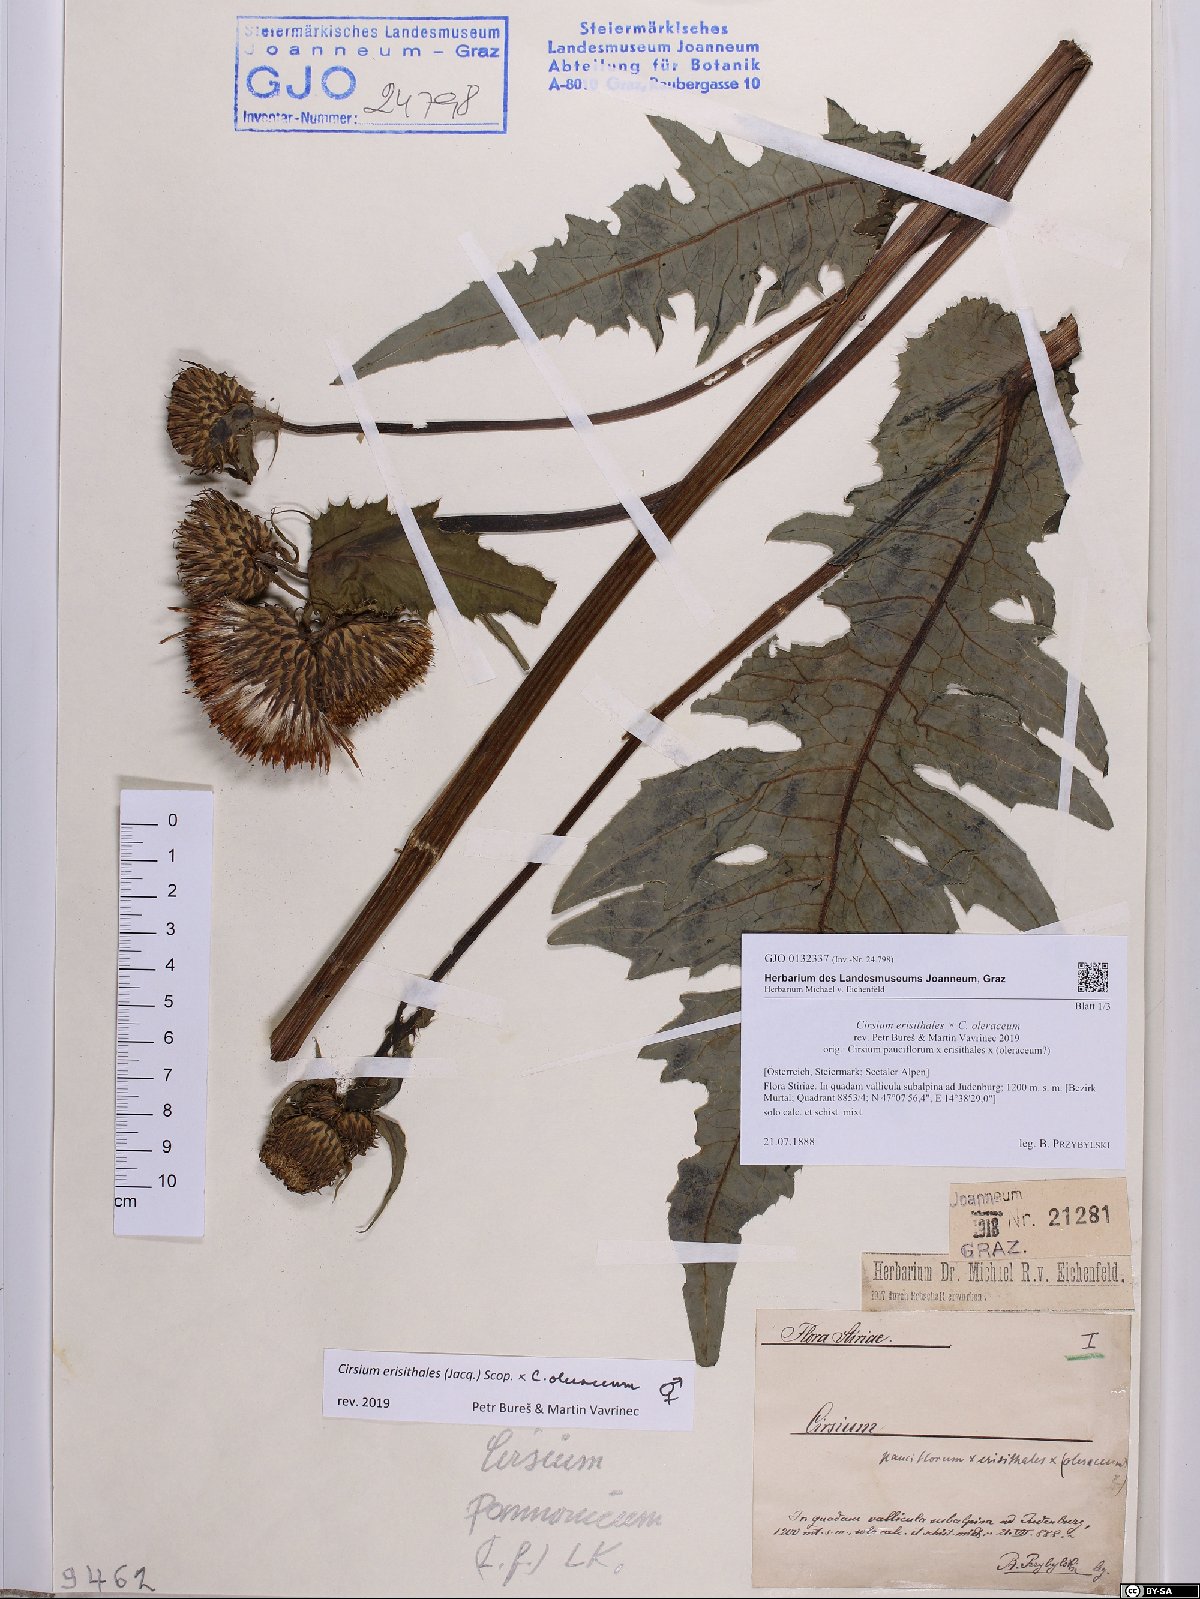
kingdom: Plantae
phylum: Tracheophyta
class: Magnoliopsida
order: Asterales
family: Asteraceae
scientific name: Asteraceae
